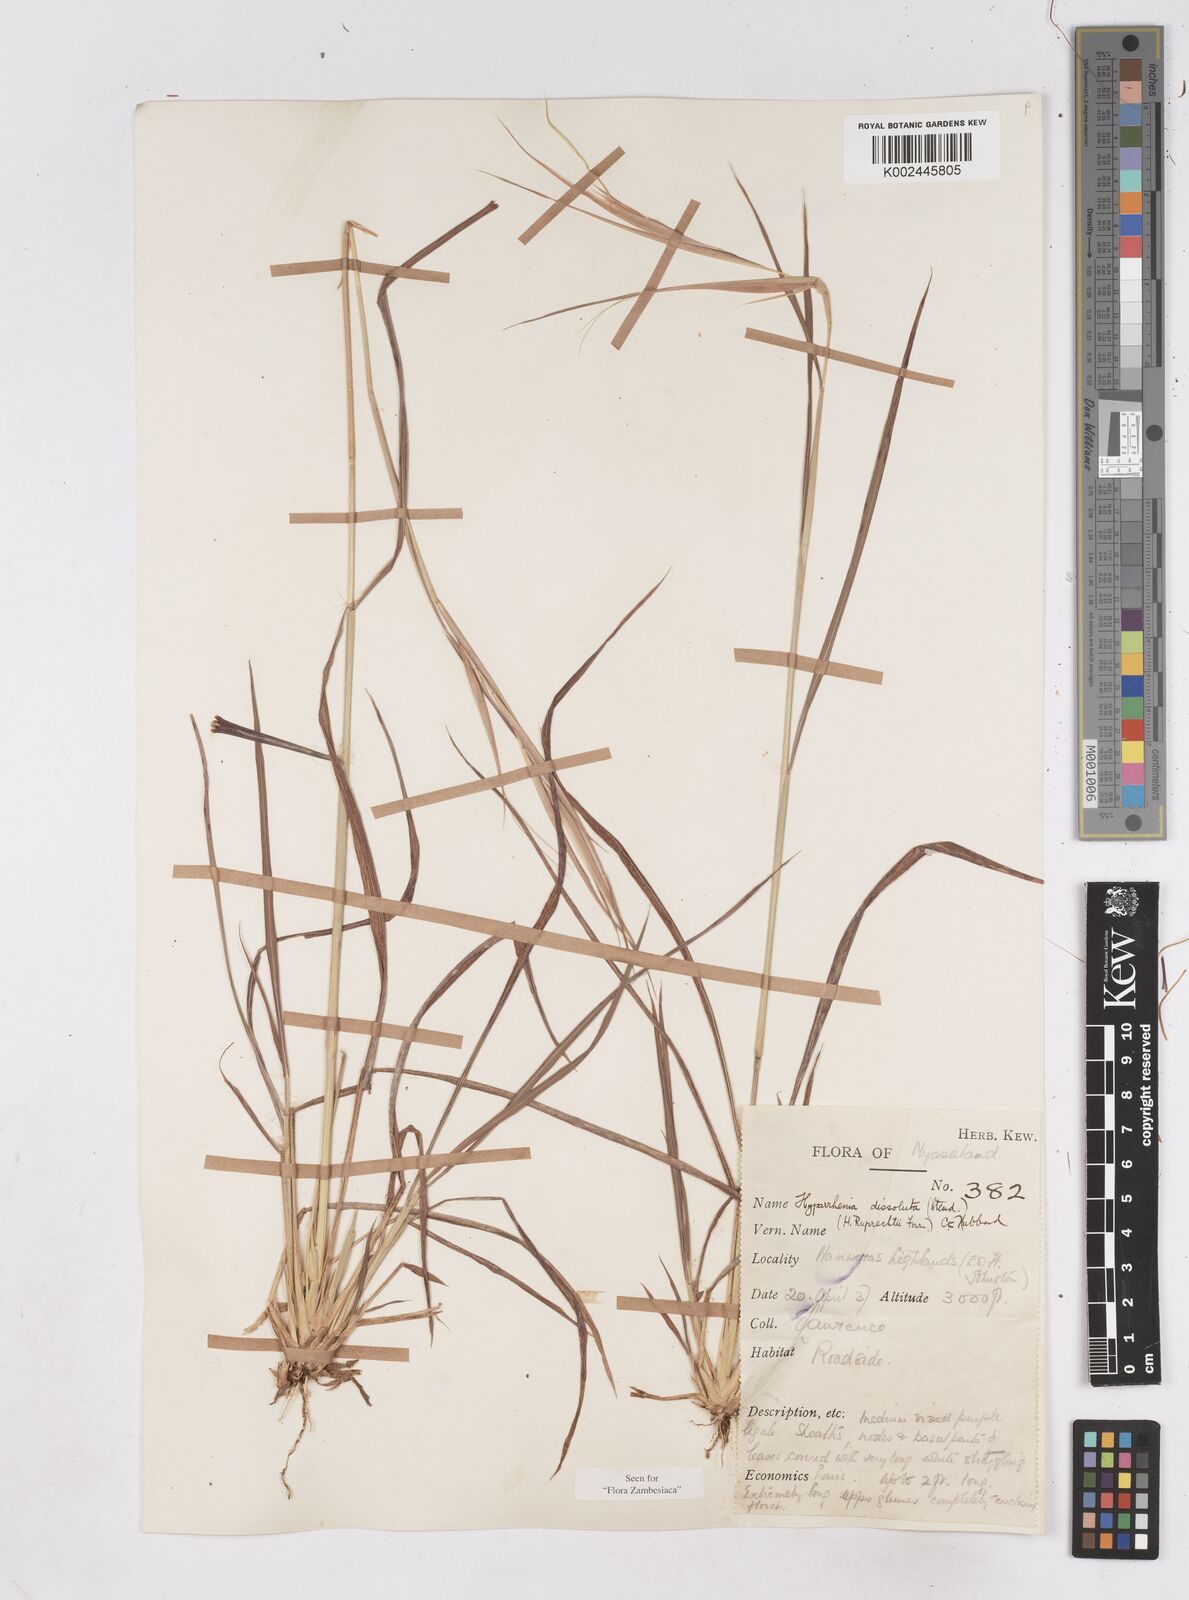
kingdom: Plantae
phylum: Tracheophyta
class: Liliopsida
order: Poales
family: Poaceae
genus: Hyperthelia
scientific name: Hyperthelia dissoluta
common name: Yellow thatching grass
